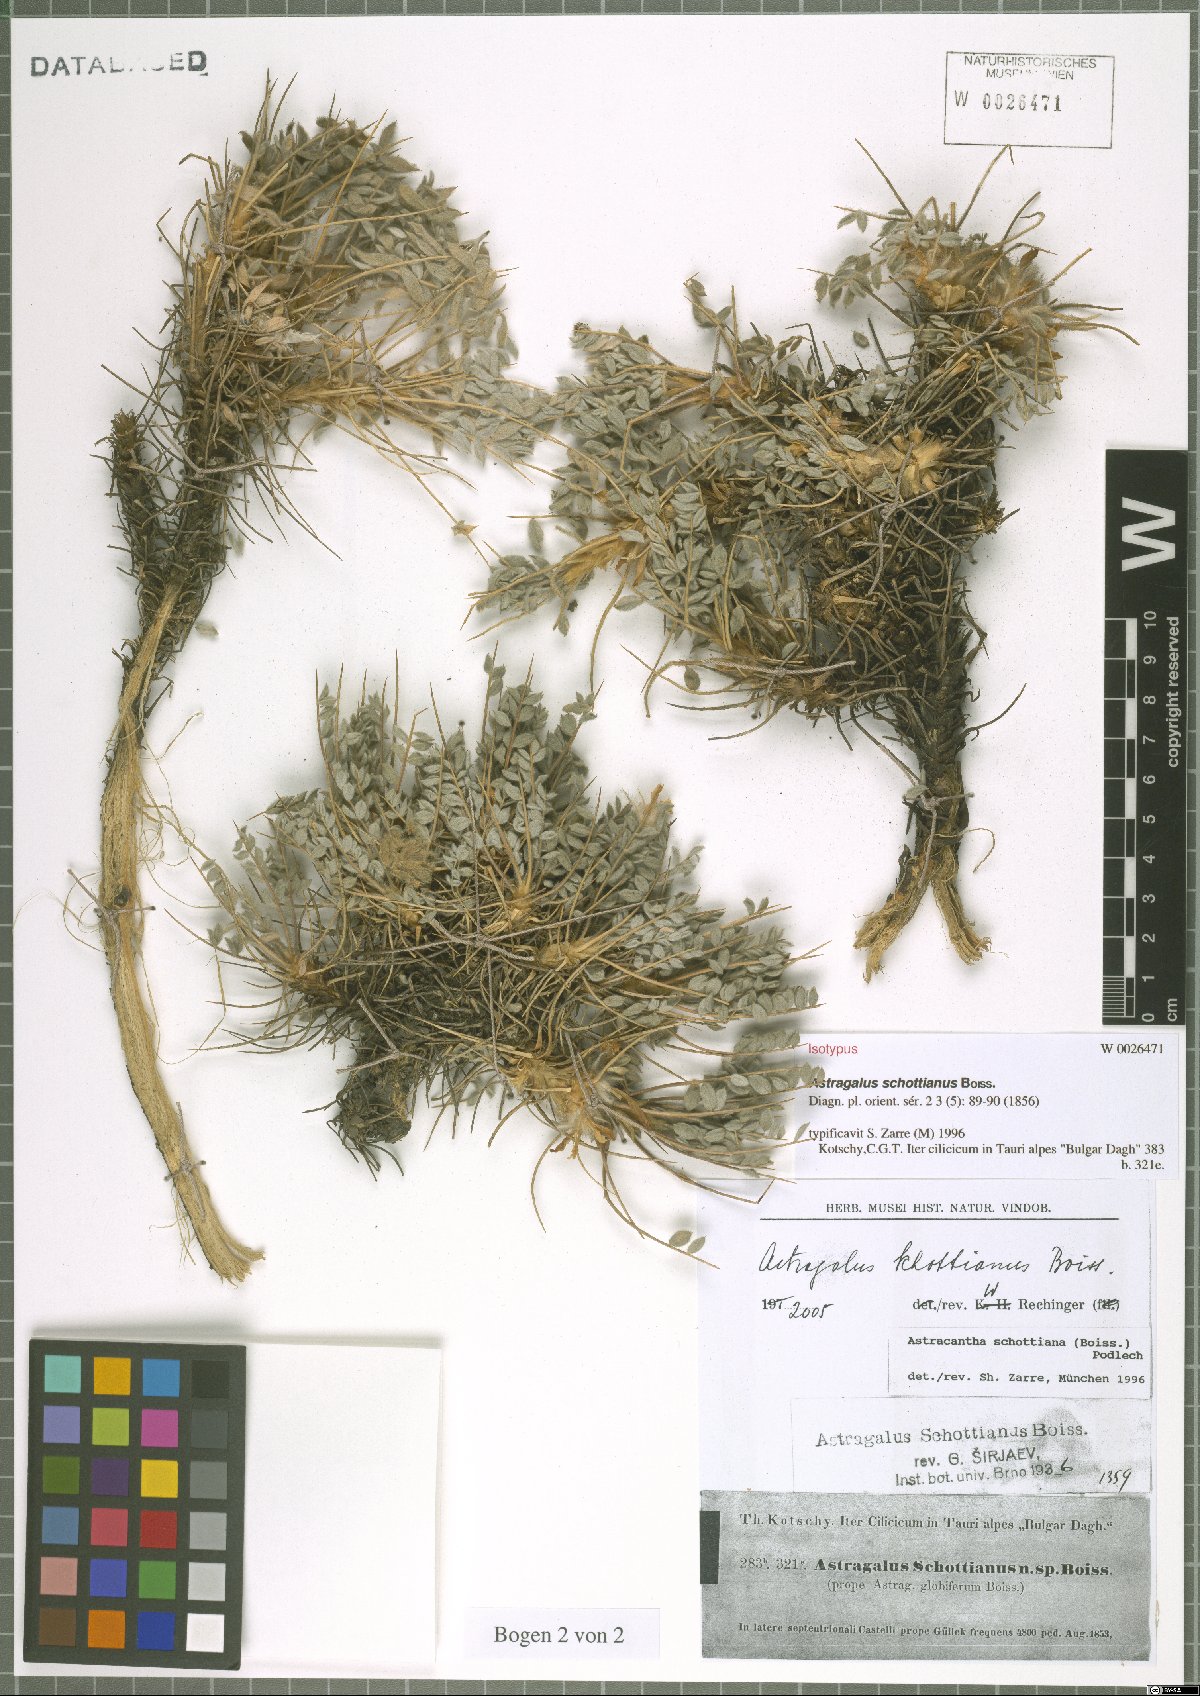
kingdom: Plantae
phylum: Tracheophyta
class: Magnoliopsida
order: Fabales
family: Fabaceae
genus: Astragalus
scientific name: Astragalus schottianus
